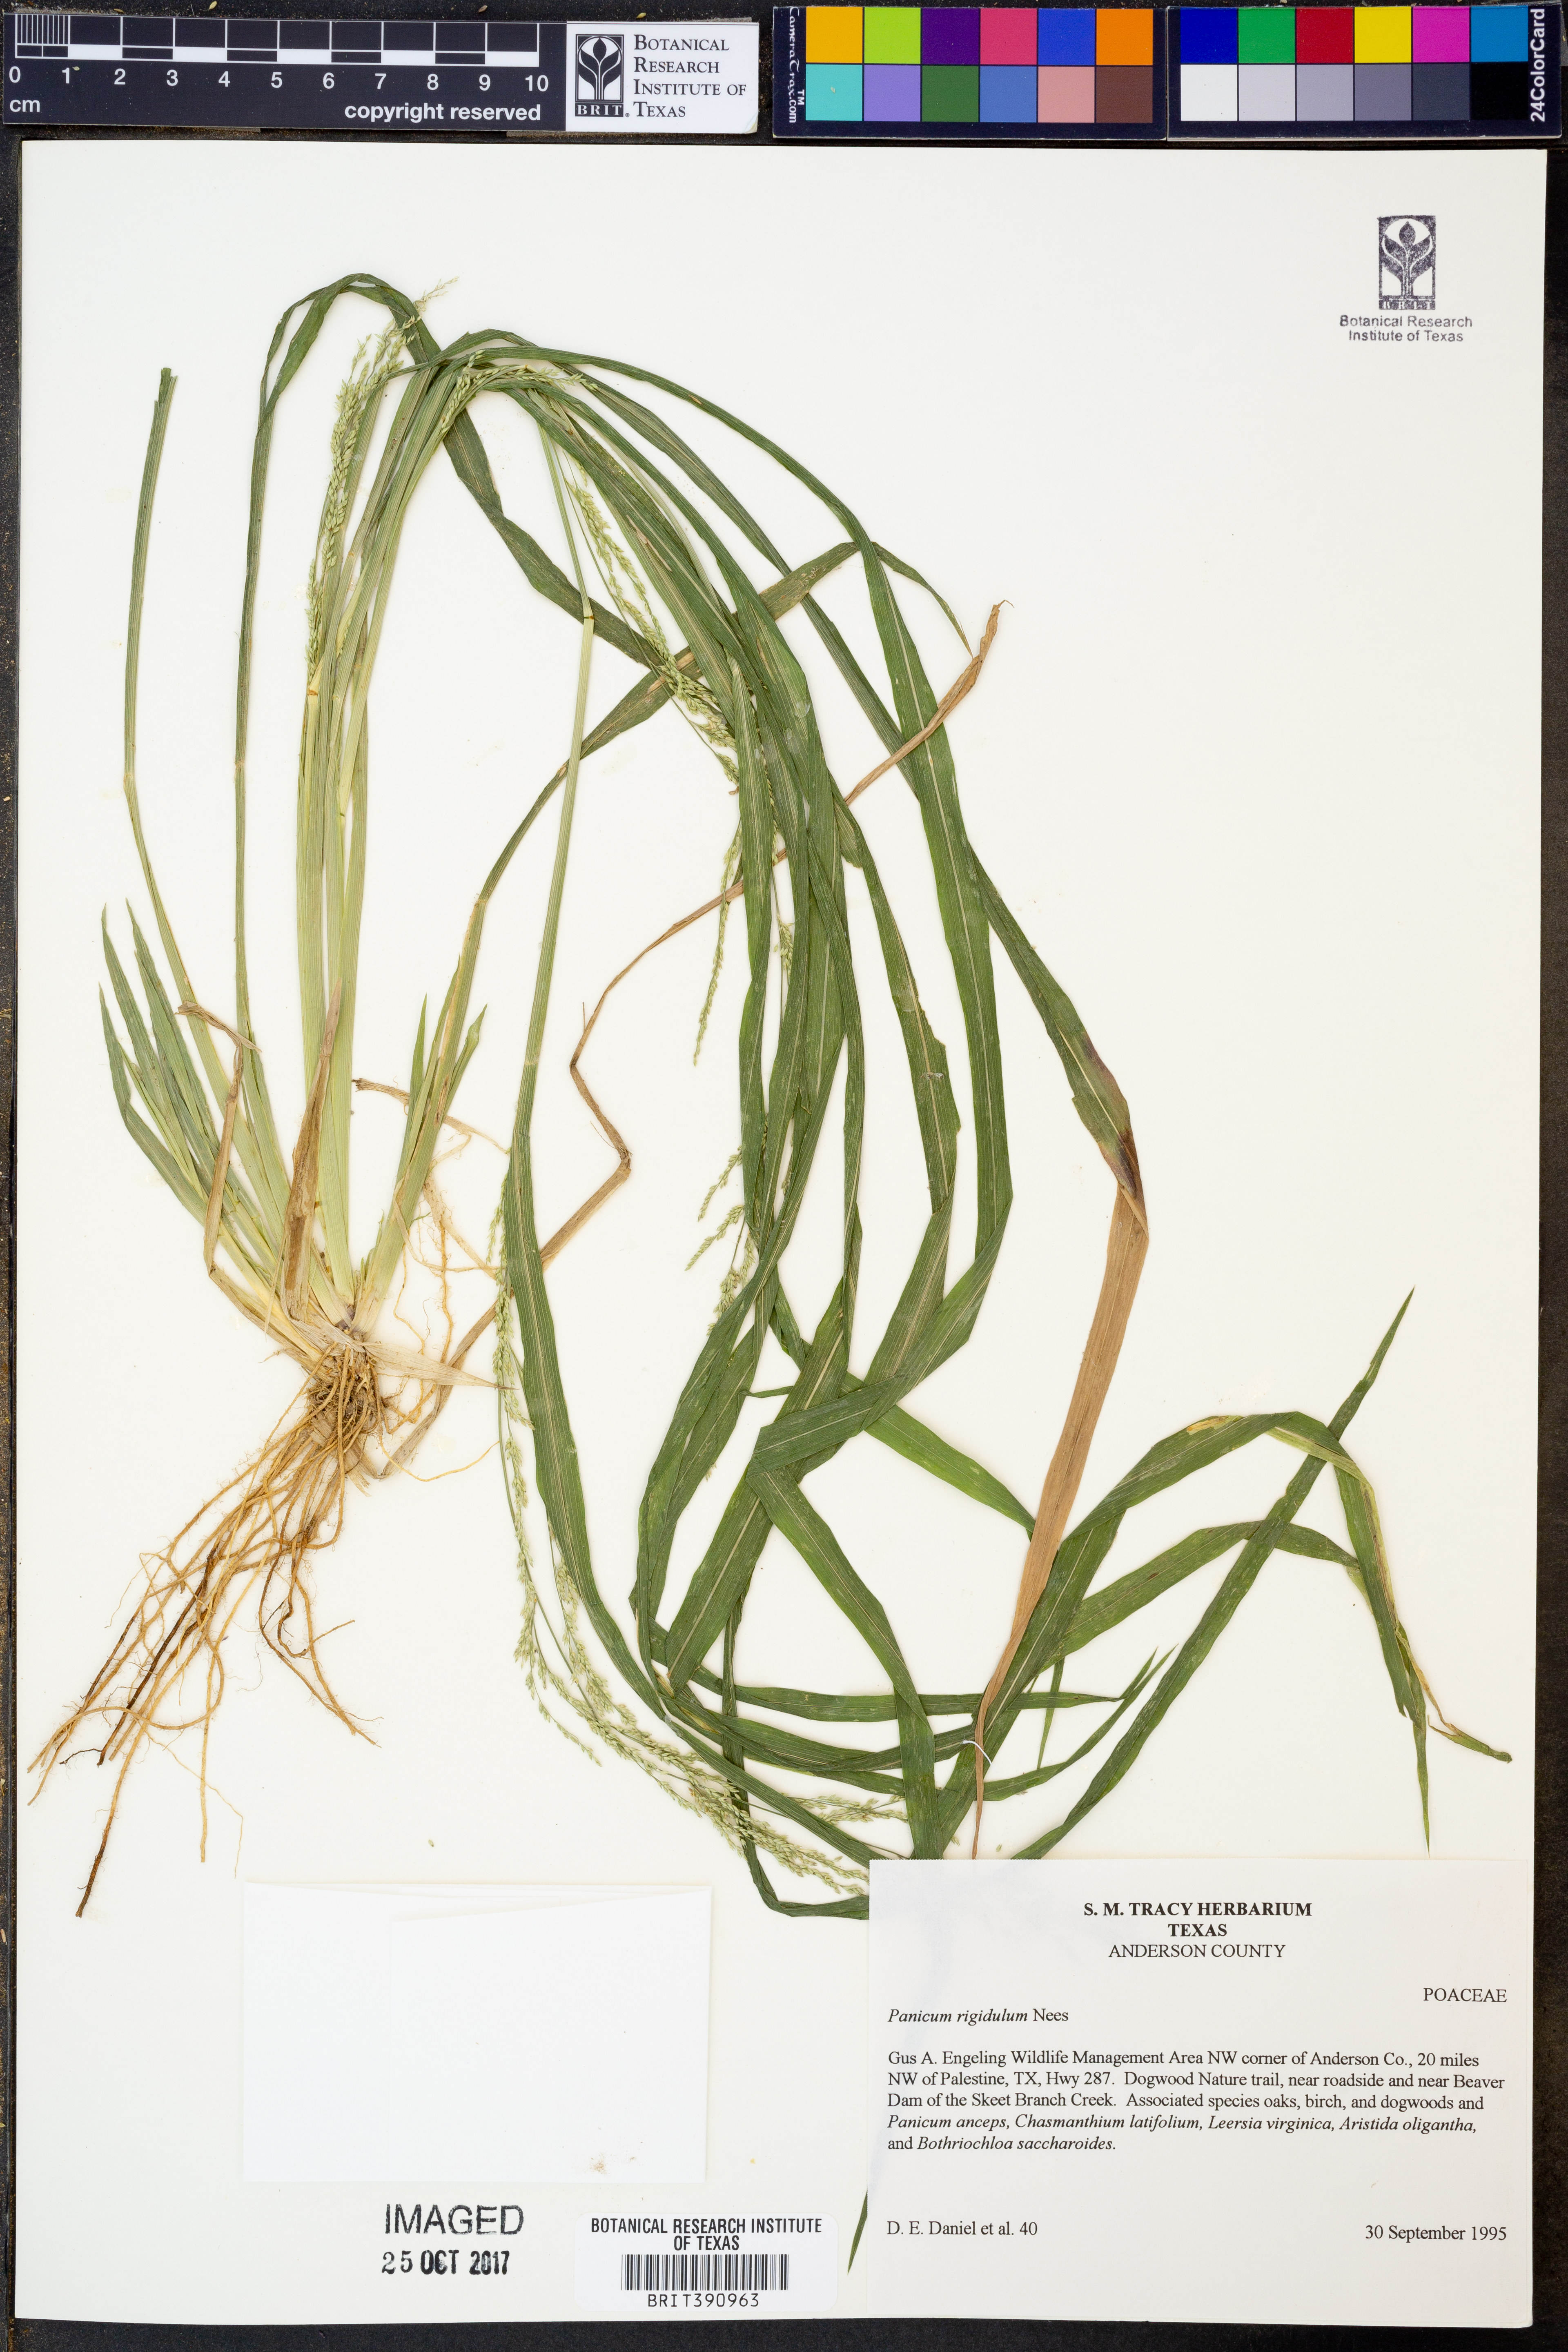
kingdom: Plantae
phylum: Tracheophyta
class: Liliopsida
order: Poales
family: Poaceae
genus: Coleataenia
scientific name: Coleataenia rigidula
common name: Redtop panicgrass
